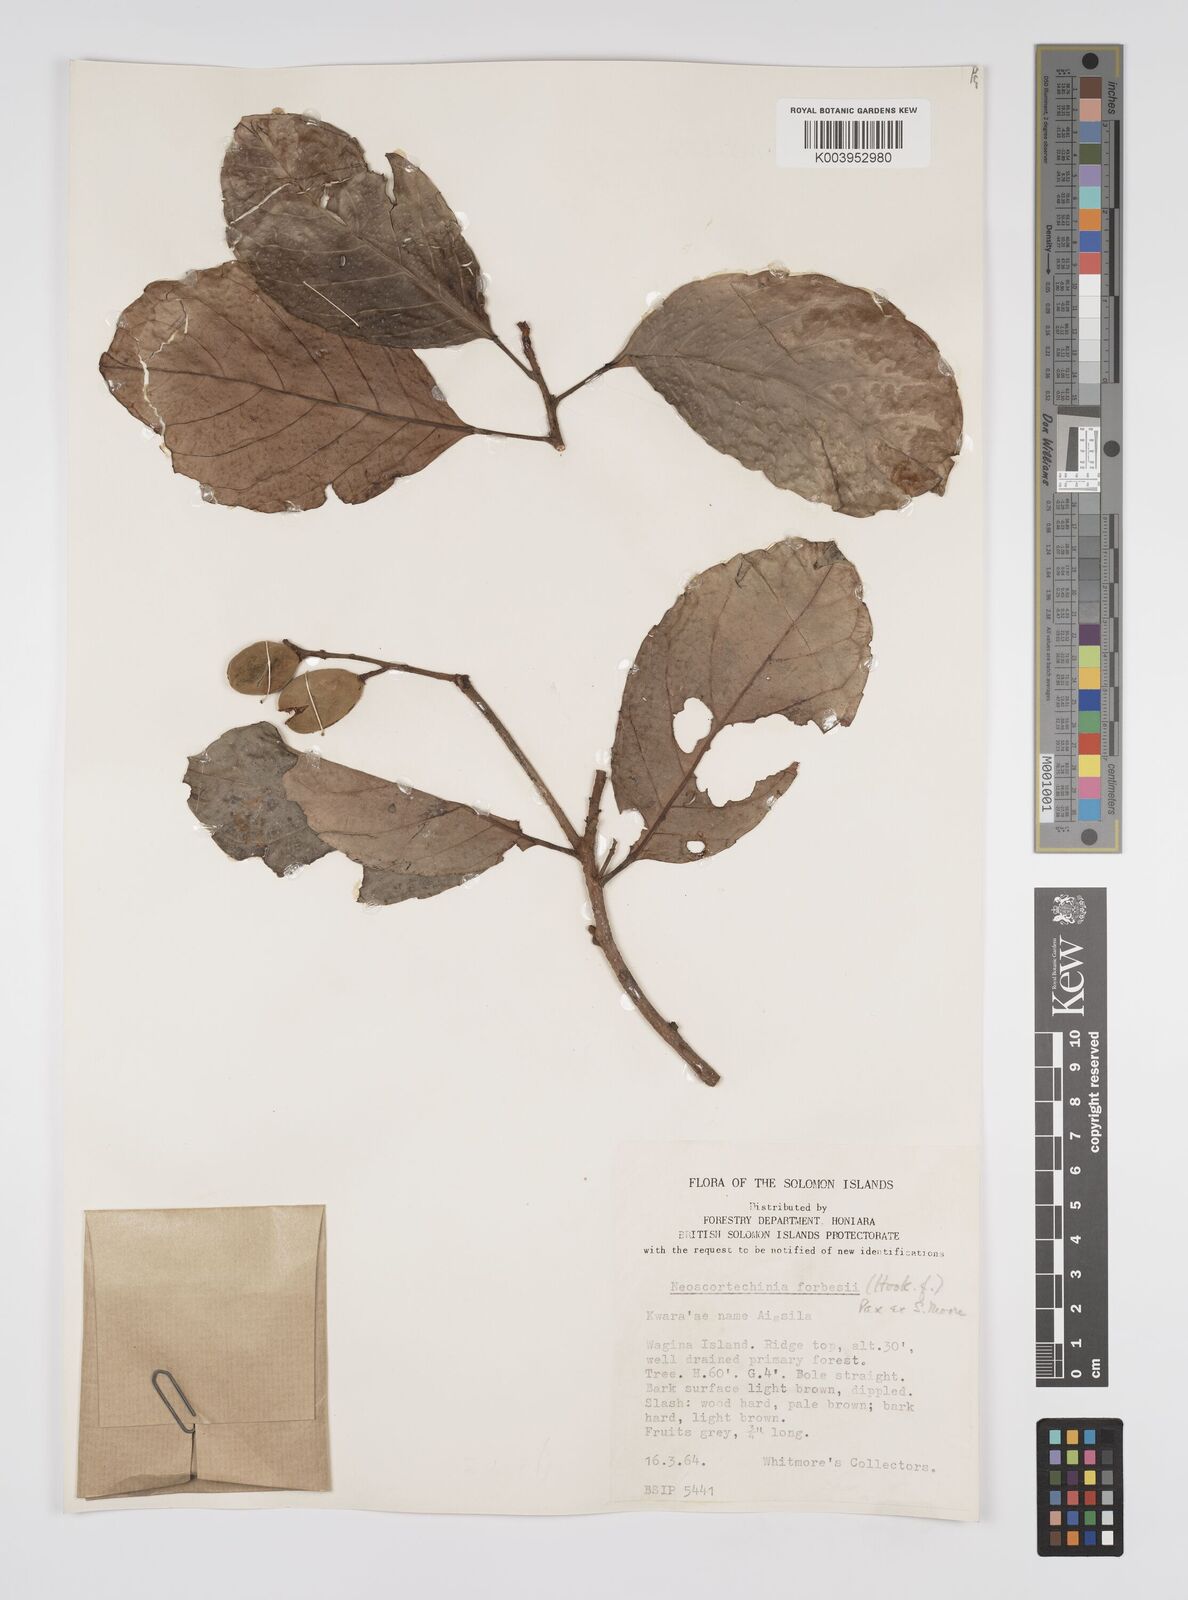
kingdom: Plantae
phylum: Tracheophyta
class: Magnoliopsida
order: Malpighiales
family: Euphorbiaceae
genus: Neoscortechinia
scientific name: Neoscortechinia forbesii
